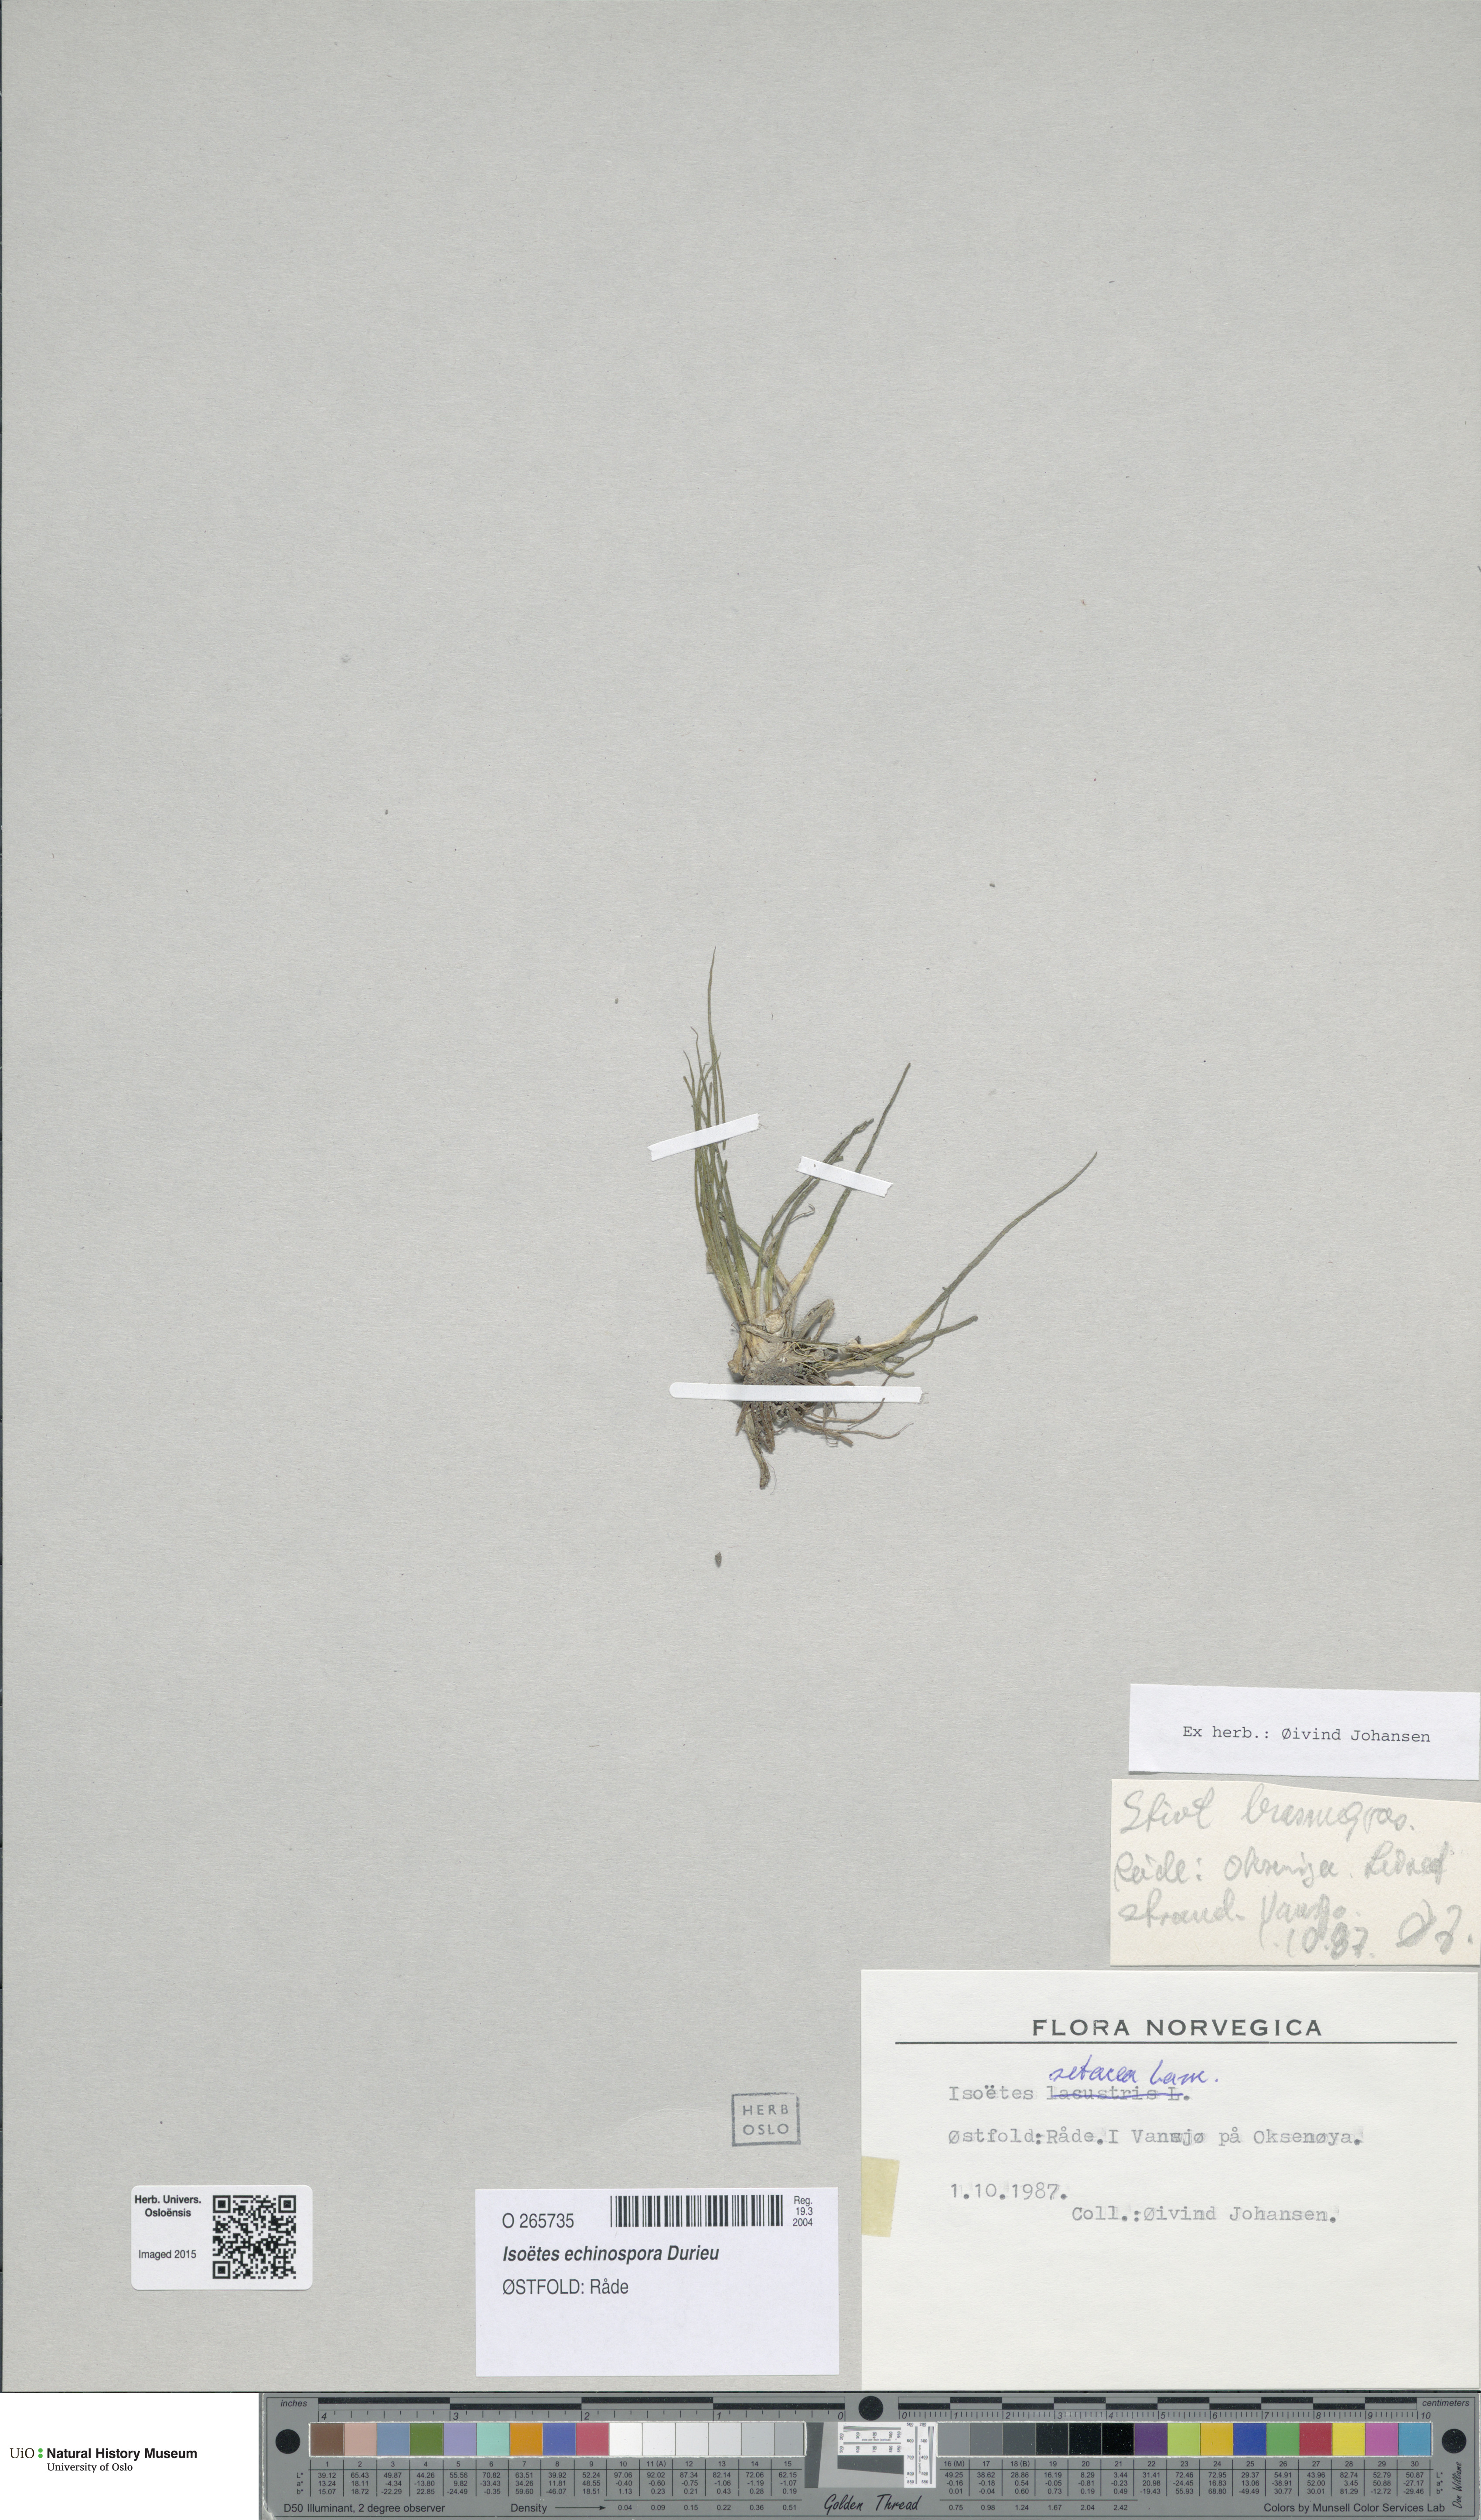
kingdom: Plantae
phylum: Tracheophyta
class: Lycopodiopsida
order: Isoetales
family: Isoetaceae
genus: Isoetes
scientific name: Isoetes echinospora
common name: Spring quillwort
